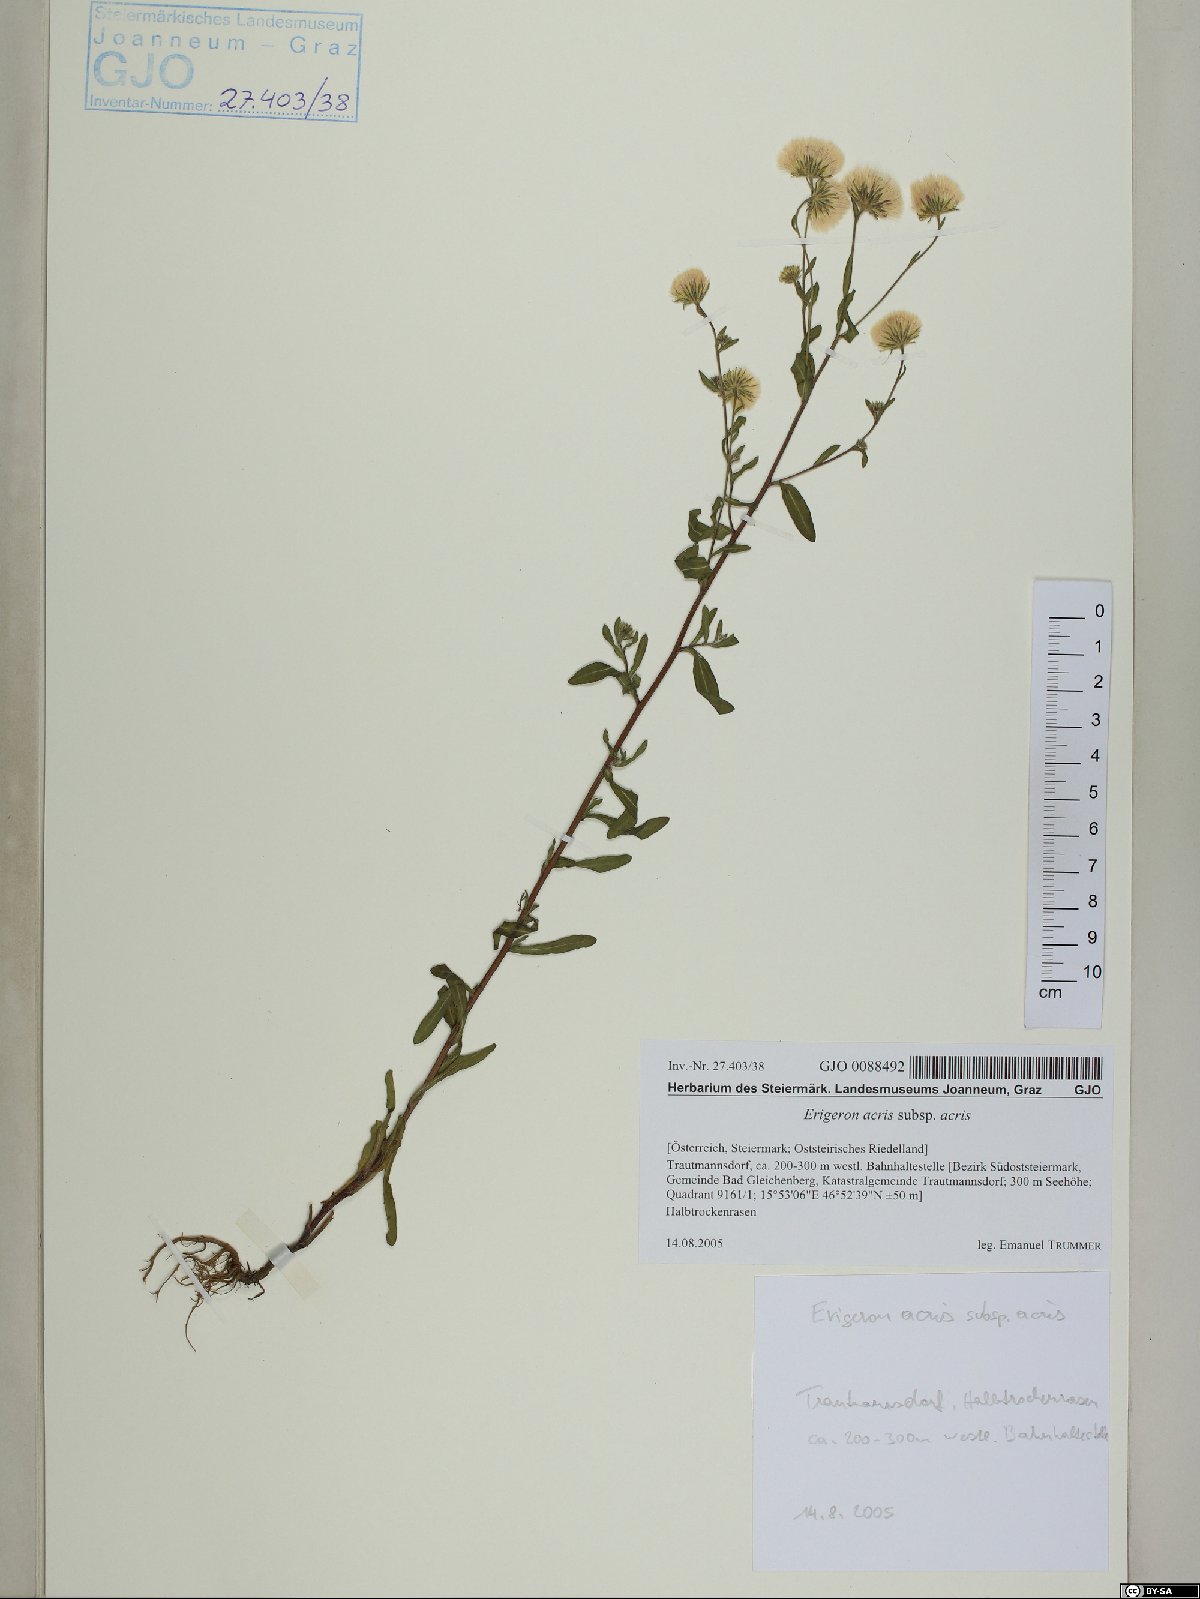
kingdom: Plantae
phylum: Tracheophyta
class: Magnoliopsida
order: Asterales
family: Asteraceae
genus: Erigeron
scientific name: Erigeron muralis
